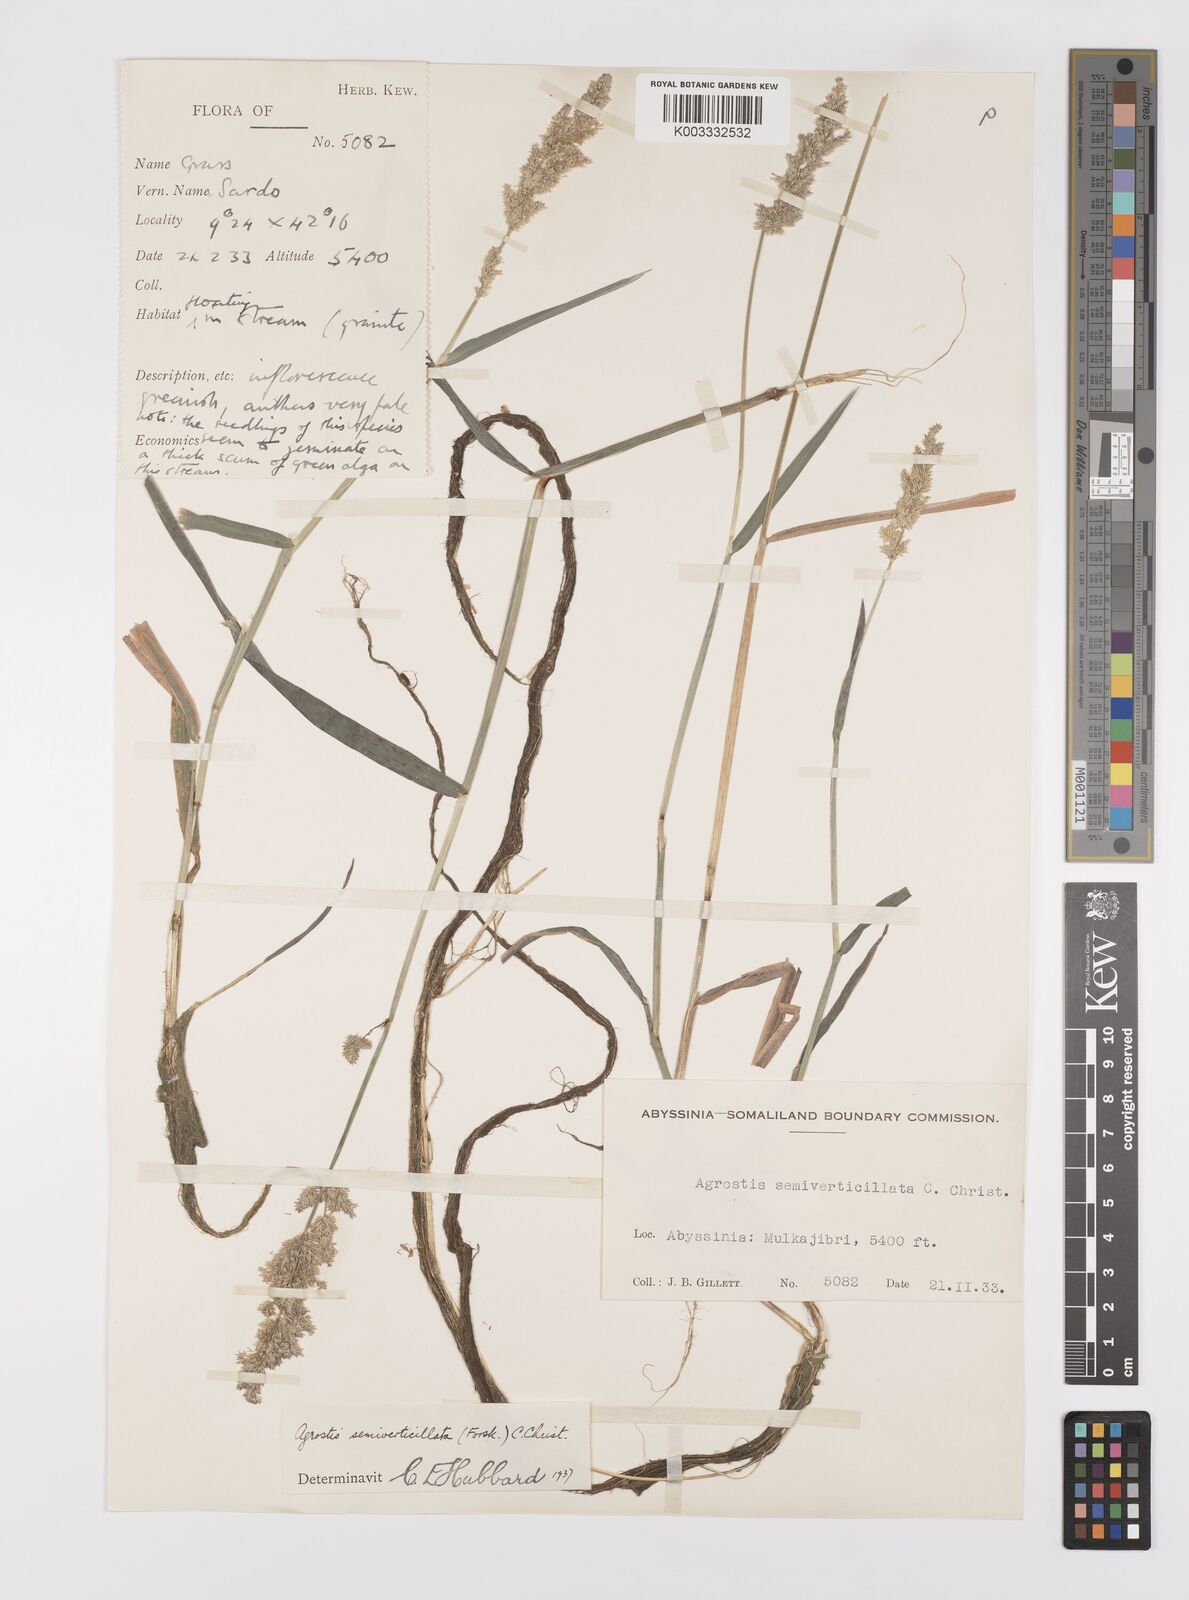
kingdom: Plantae
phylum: Tracheophyta
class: Liliopsida
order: Poales
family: Poaceae
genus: Polypogon
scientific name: Polypogon viridis
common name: Water bent
